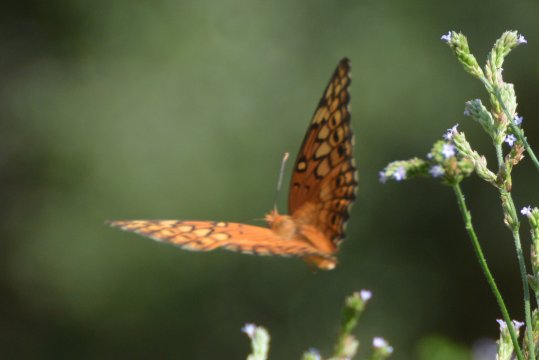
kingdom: Animalia
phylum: Arthropoda
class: Insecta
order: Lepidoptera
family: Nymphalidae
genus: Euptoieta
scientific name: Euptoieta claudia
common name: Variegated Fritillary
